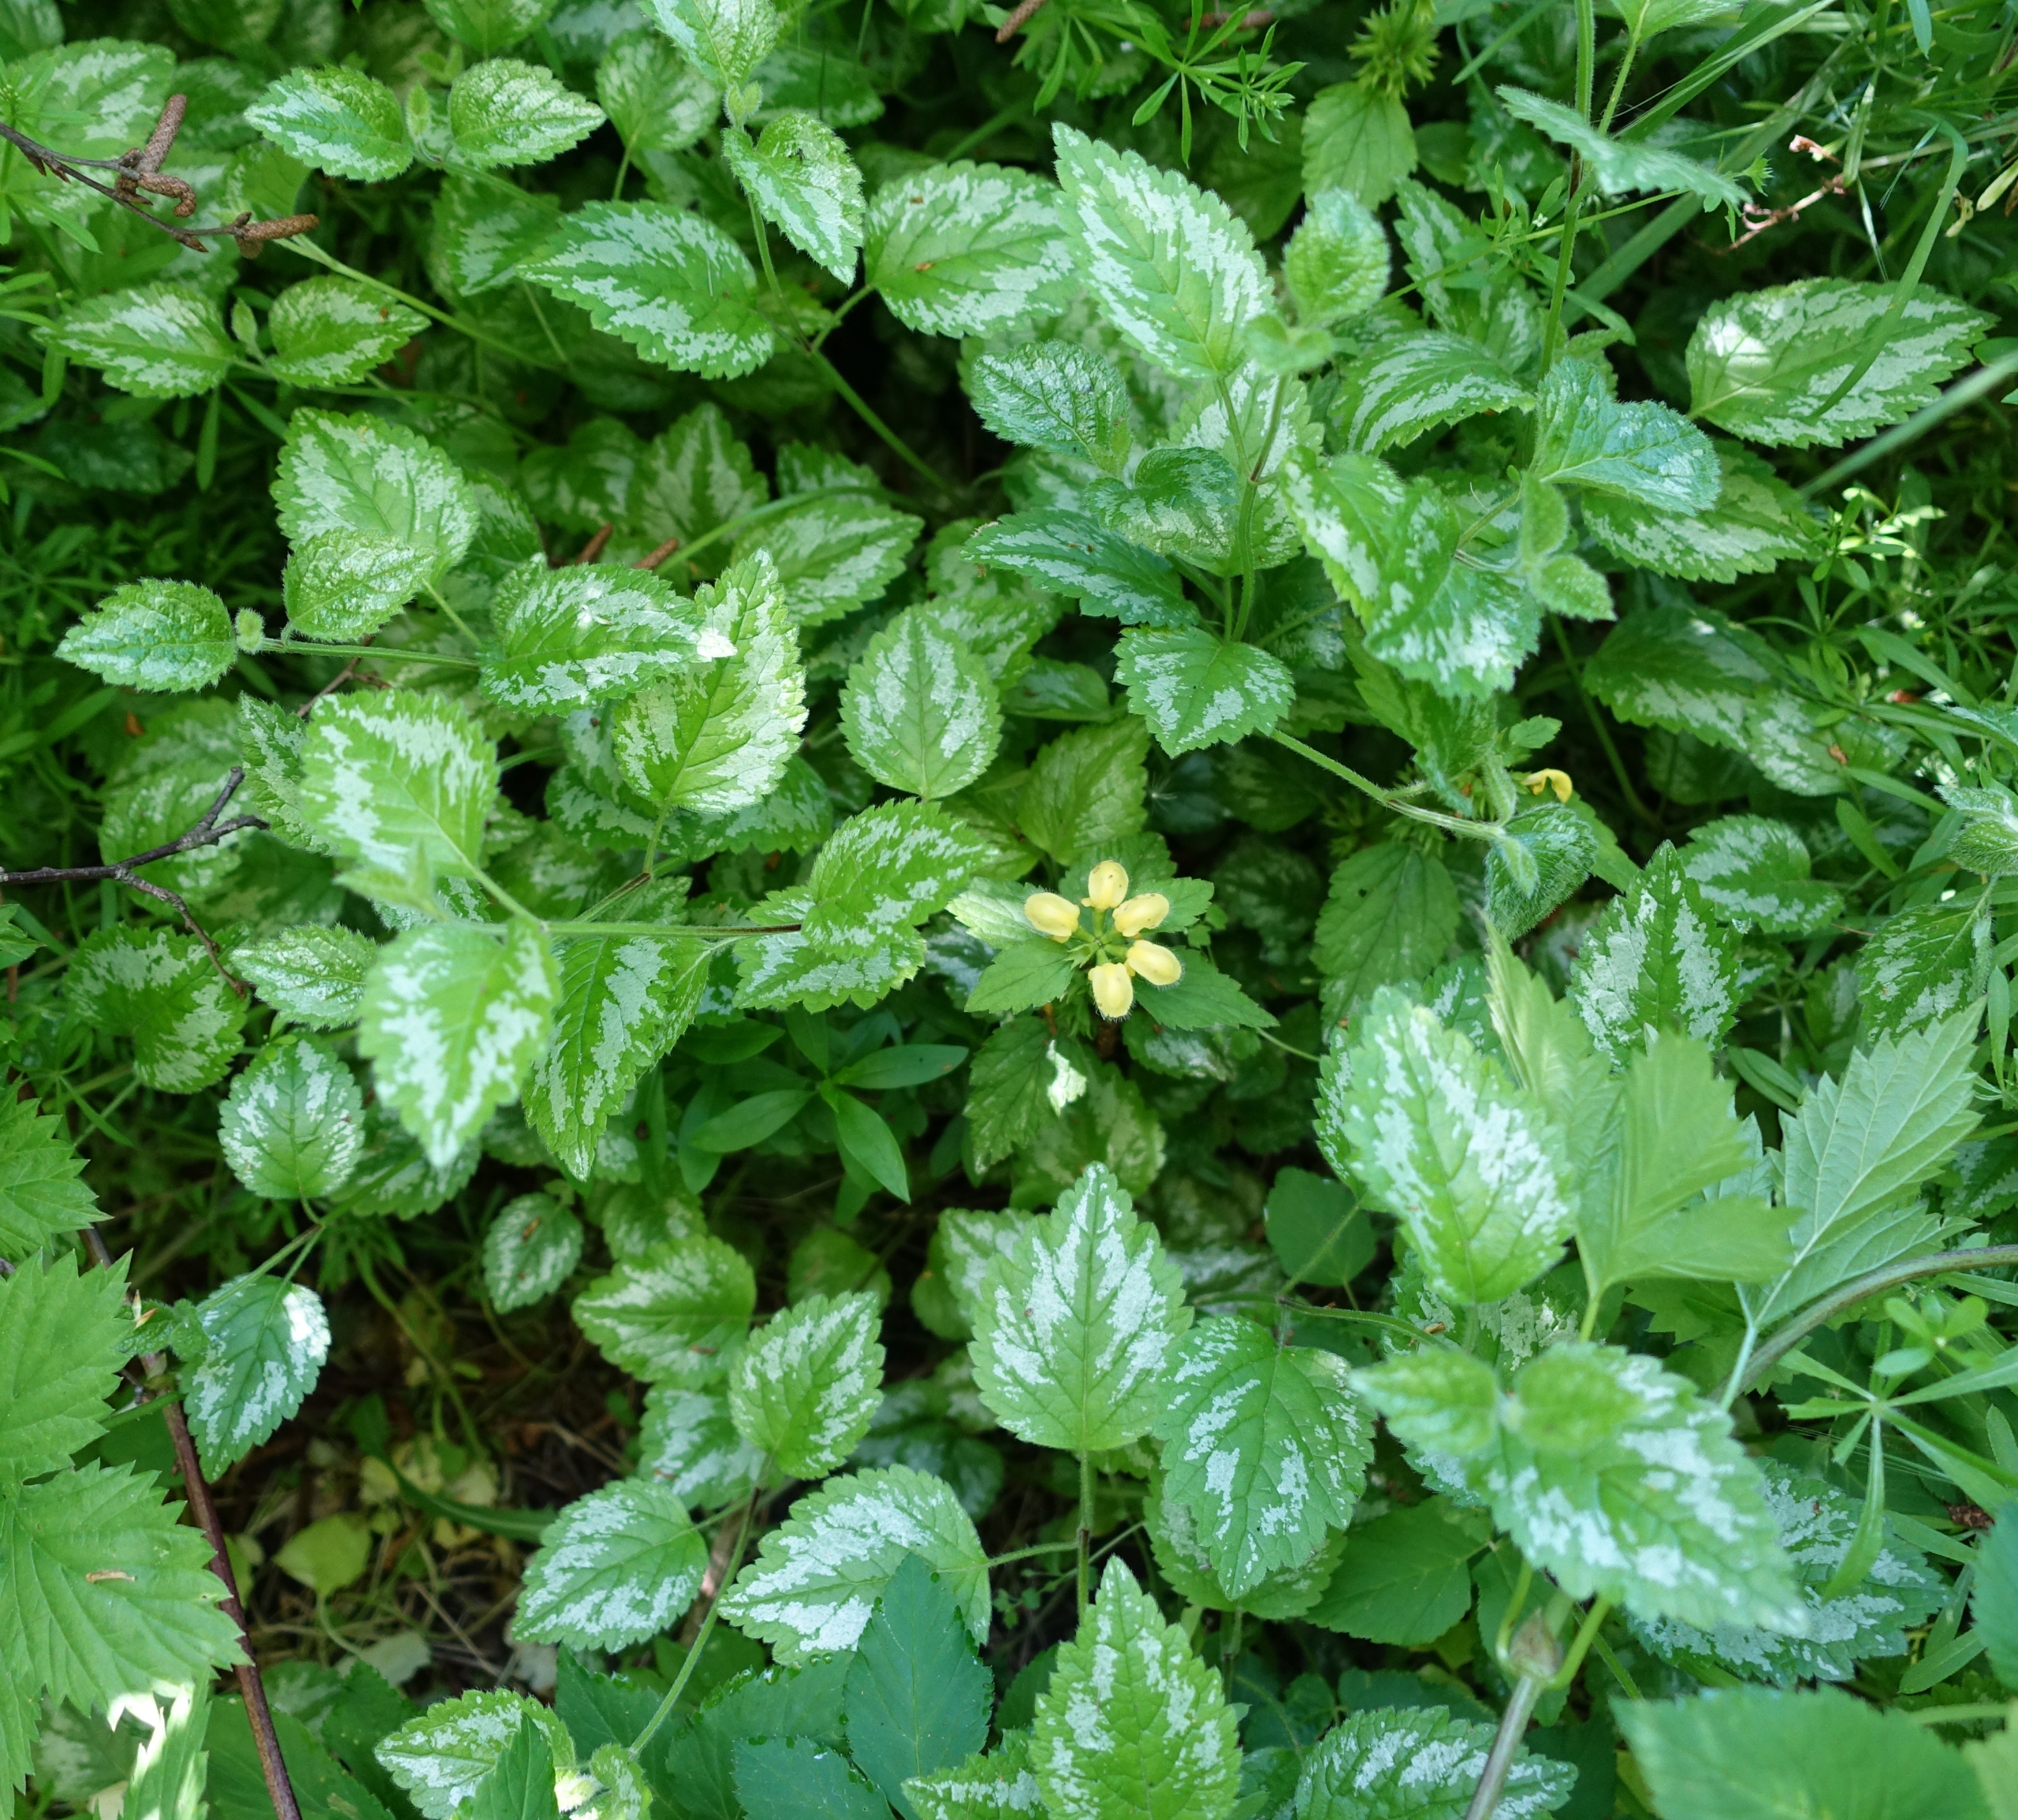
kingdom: Plantae
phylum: Tracheophyta
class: Magnoliopsida
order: Lamiales
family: Lamiaceae
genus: Lamium
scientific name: Lamium galeobdolon
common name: Guldnælde
